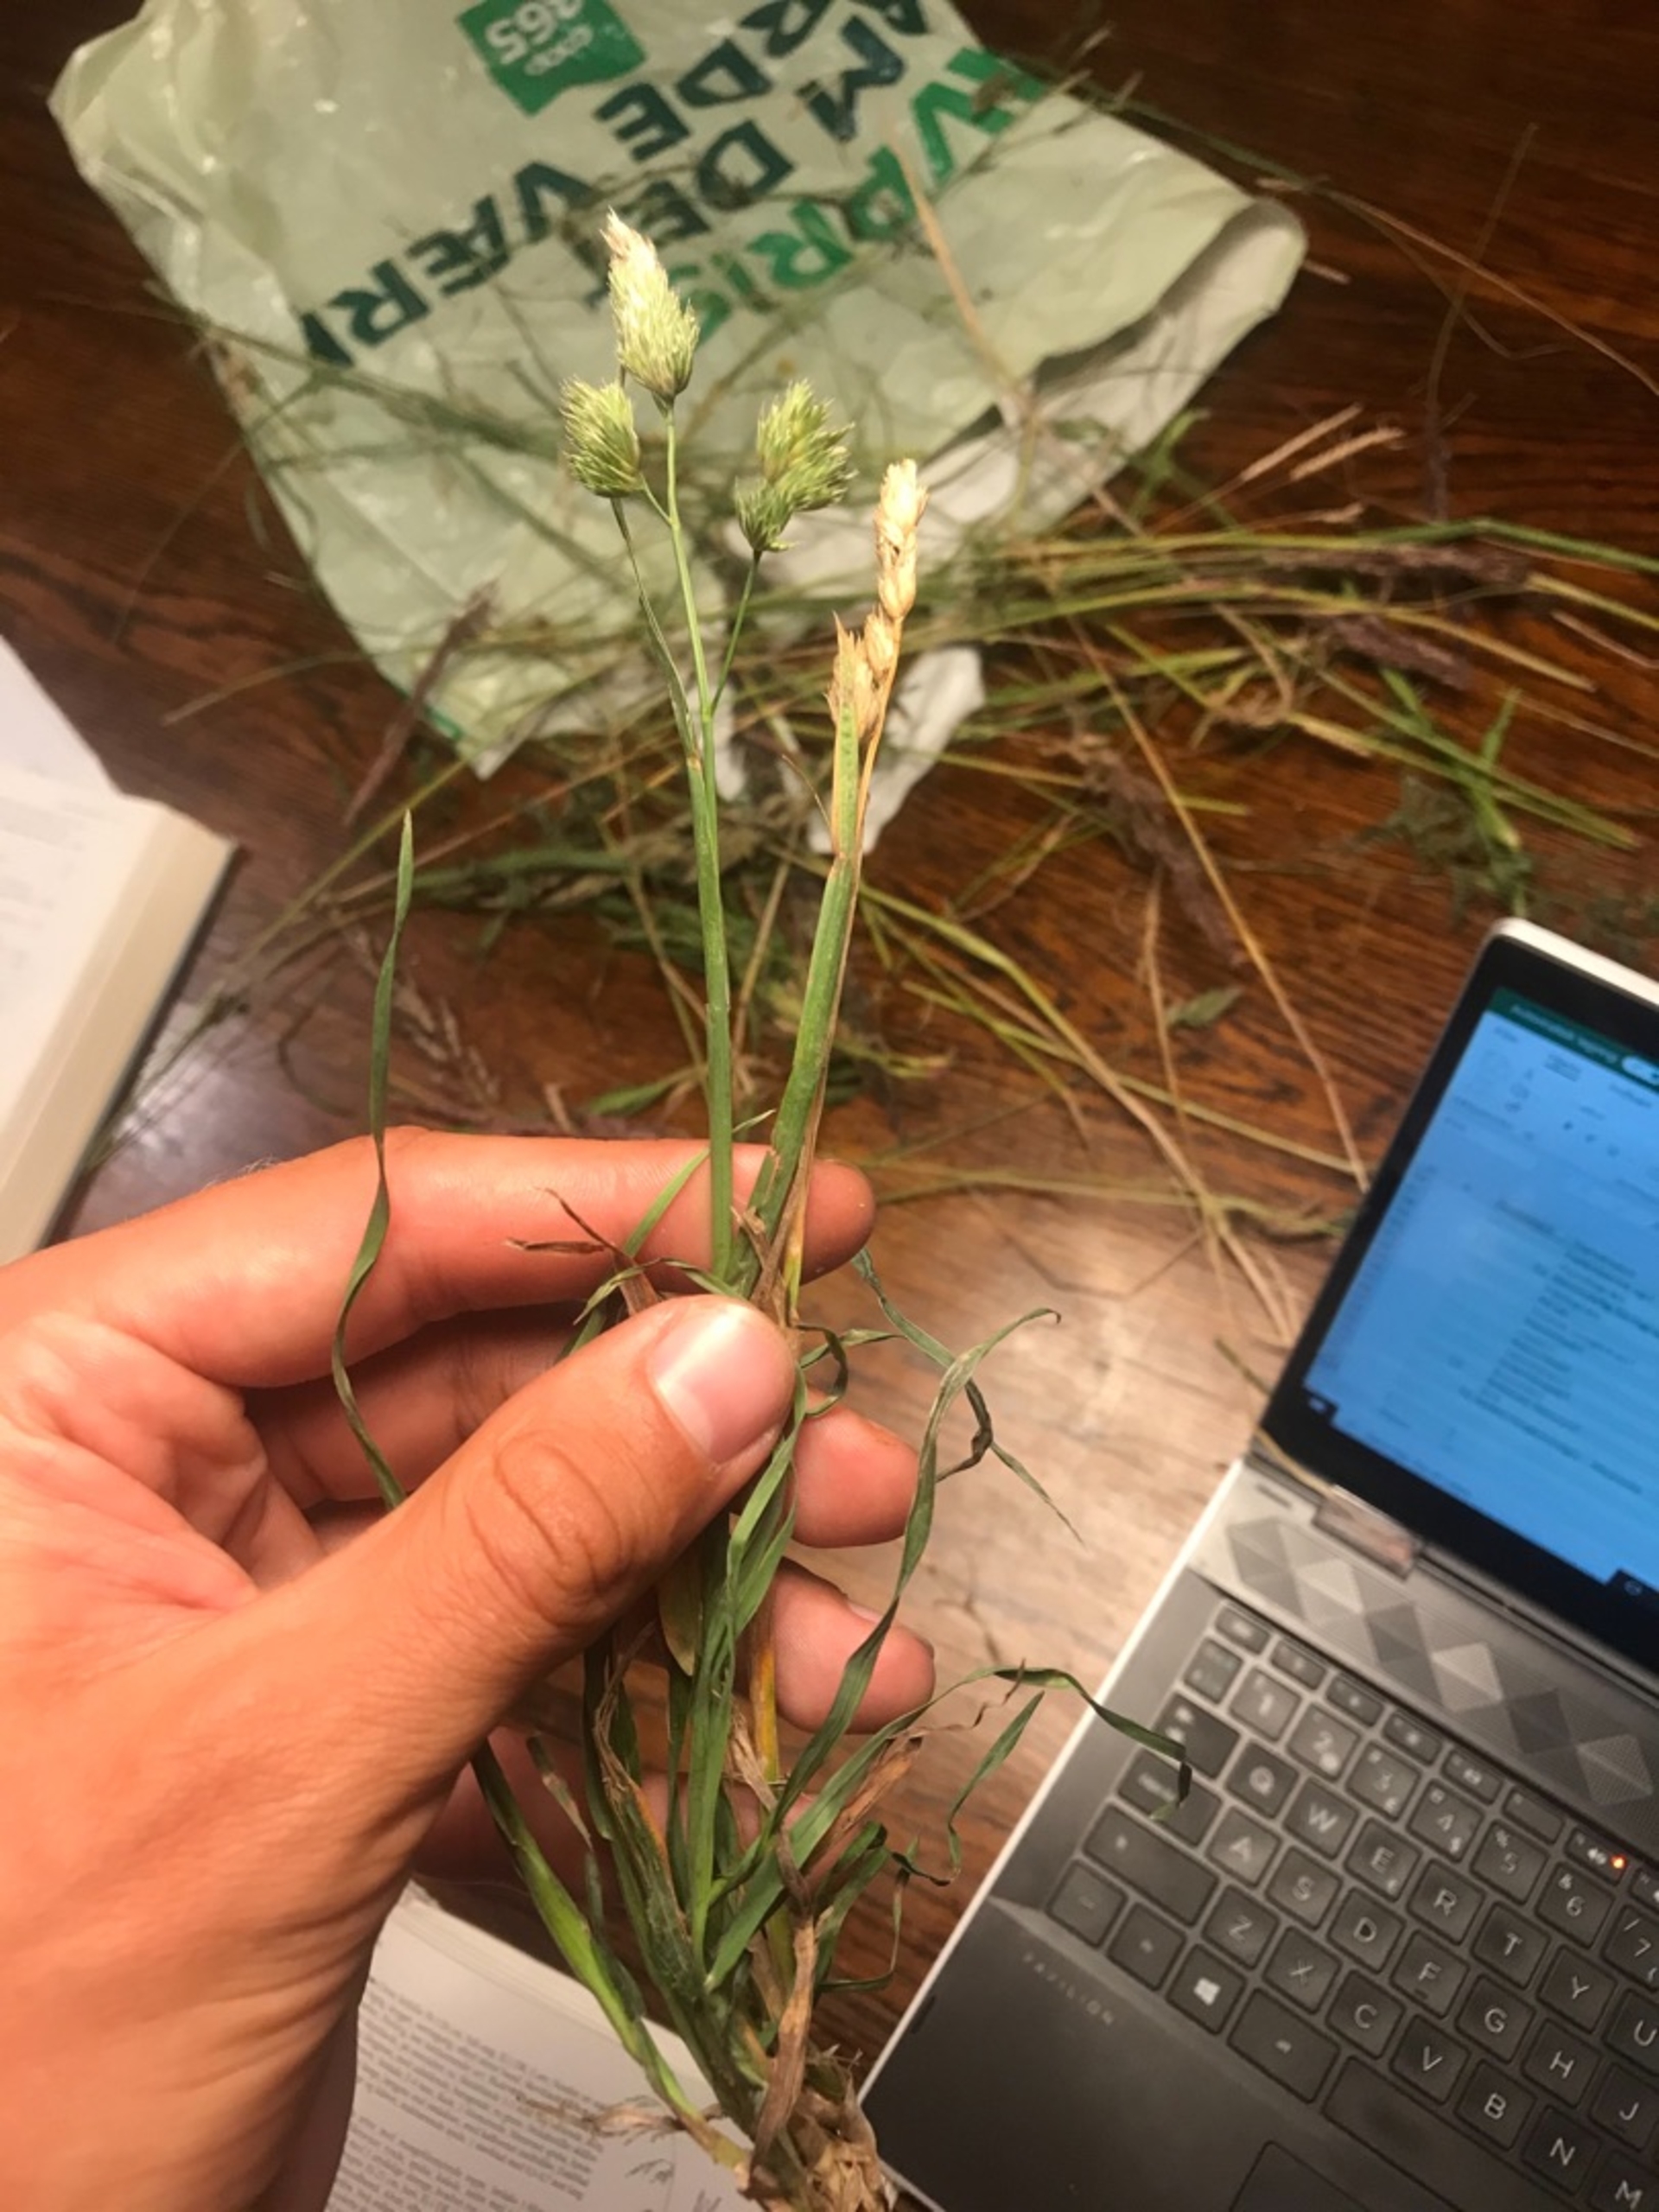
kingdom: Plantae
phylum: Tracheophyta
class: Liliopsida
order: Poales
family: Poaceae
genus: Dactylis
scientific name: Dactylis
